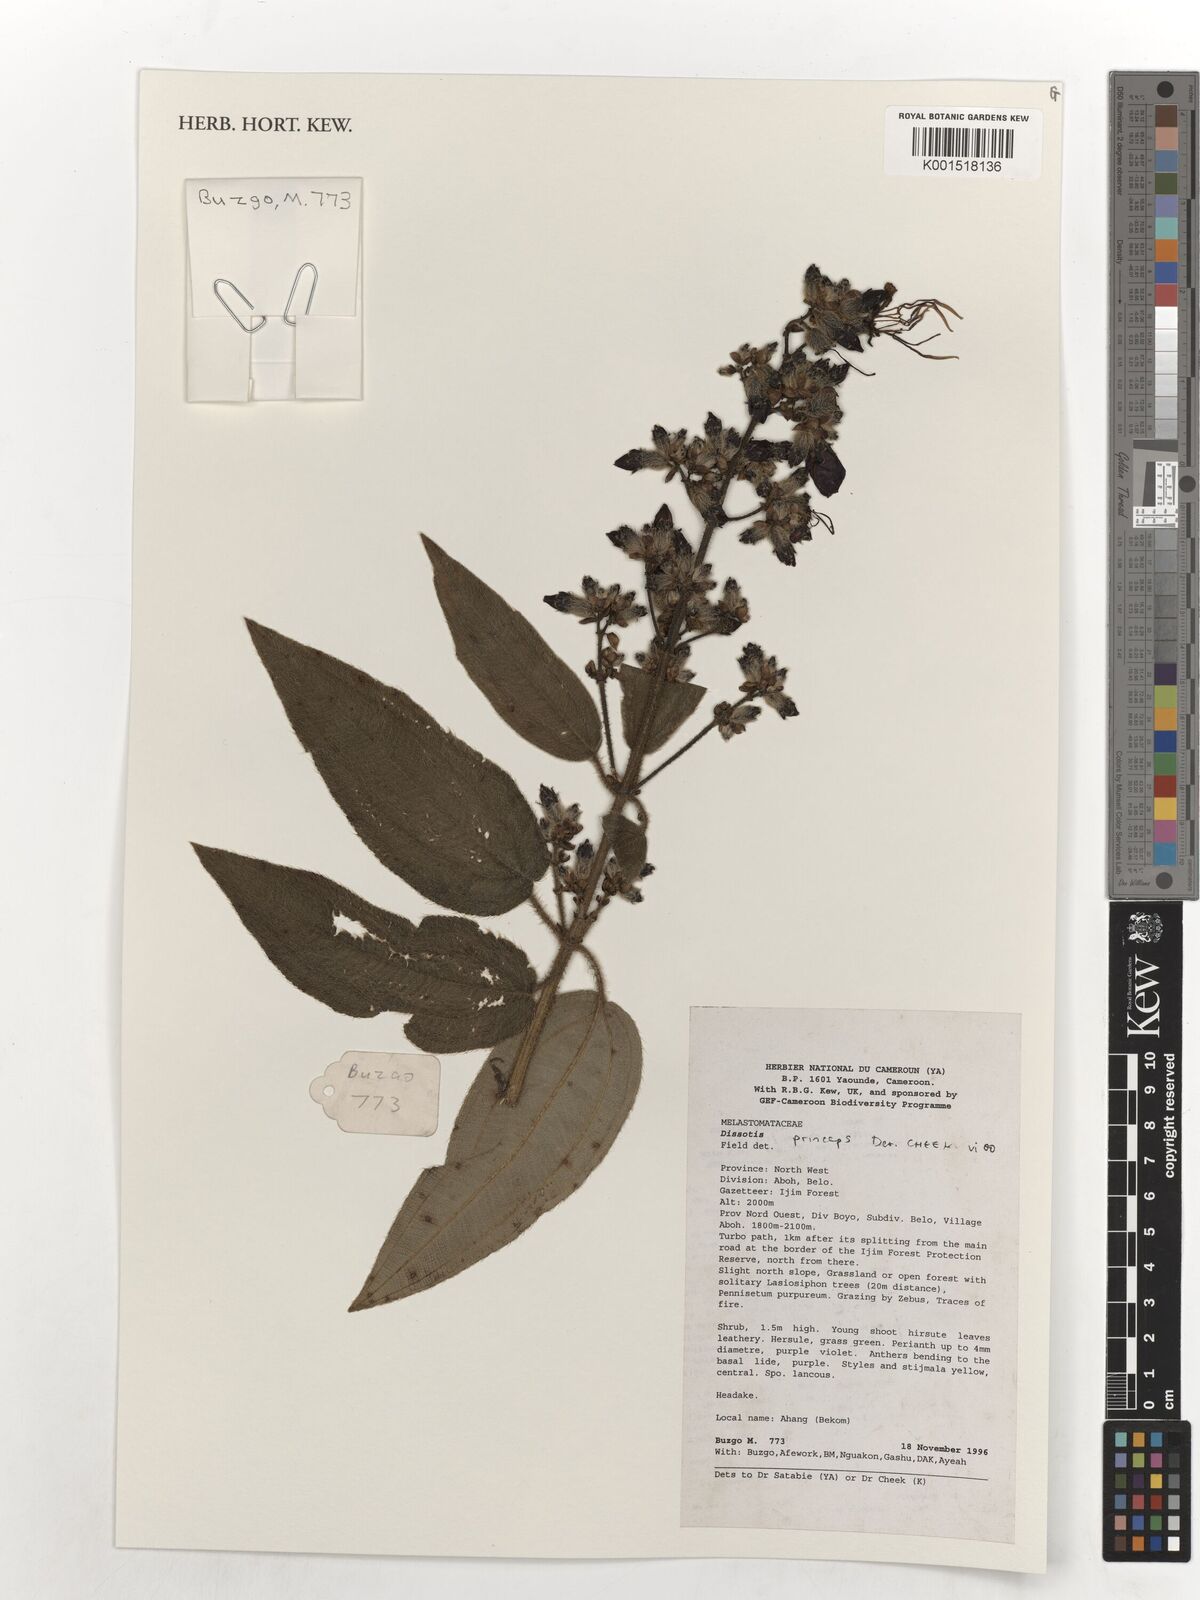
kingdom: Plantae
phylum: Tracheophyta
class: Magnoliopsida
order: Myrtales
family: Melastomataceae
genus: Rosettea
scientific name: Rosettea princeps
